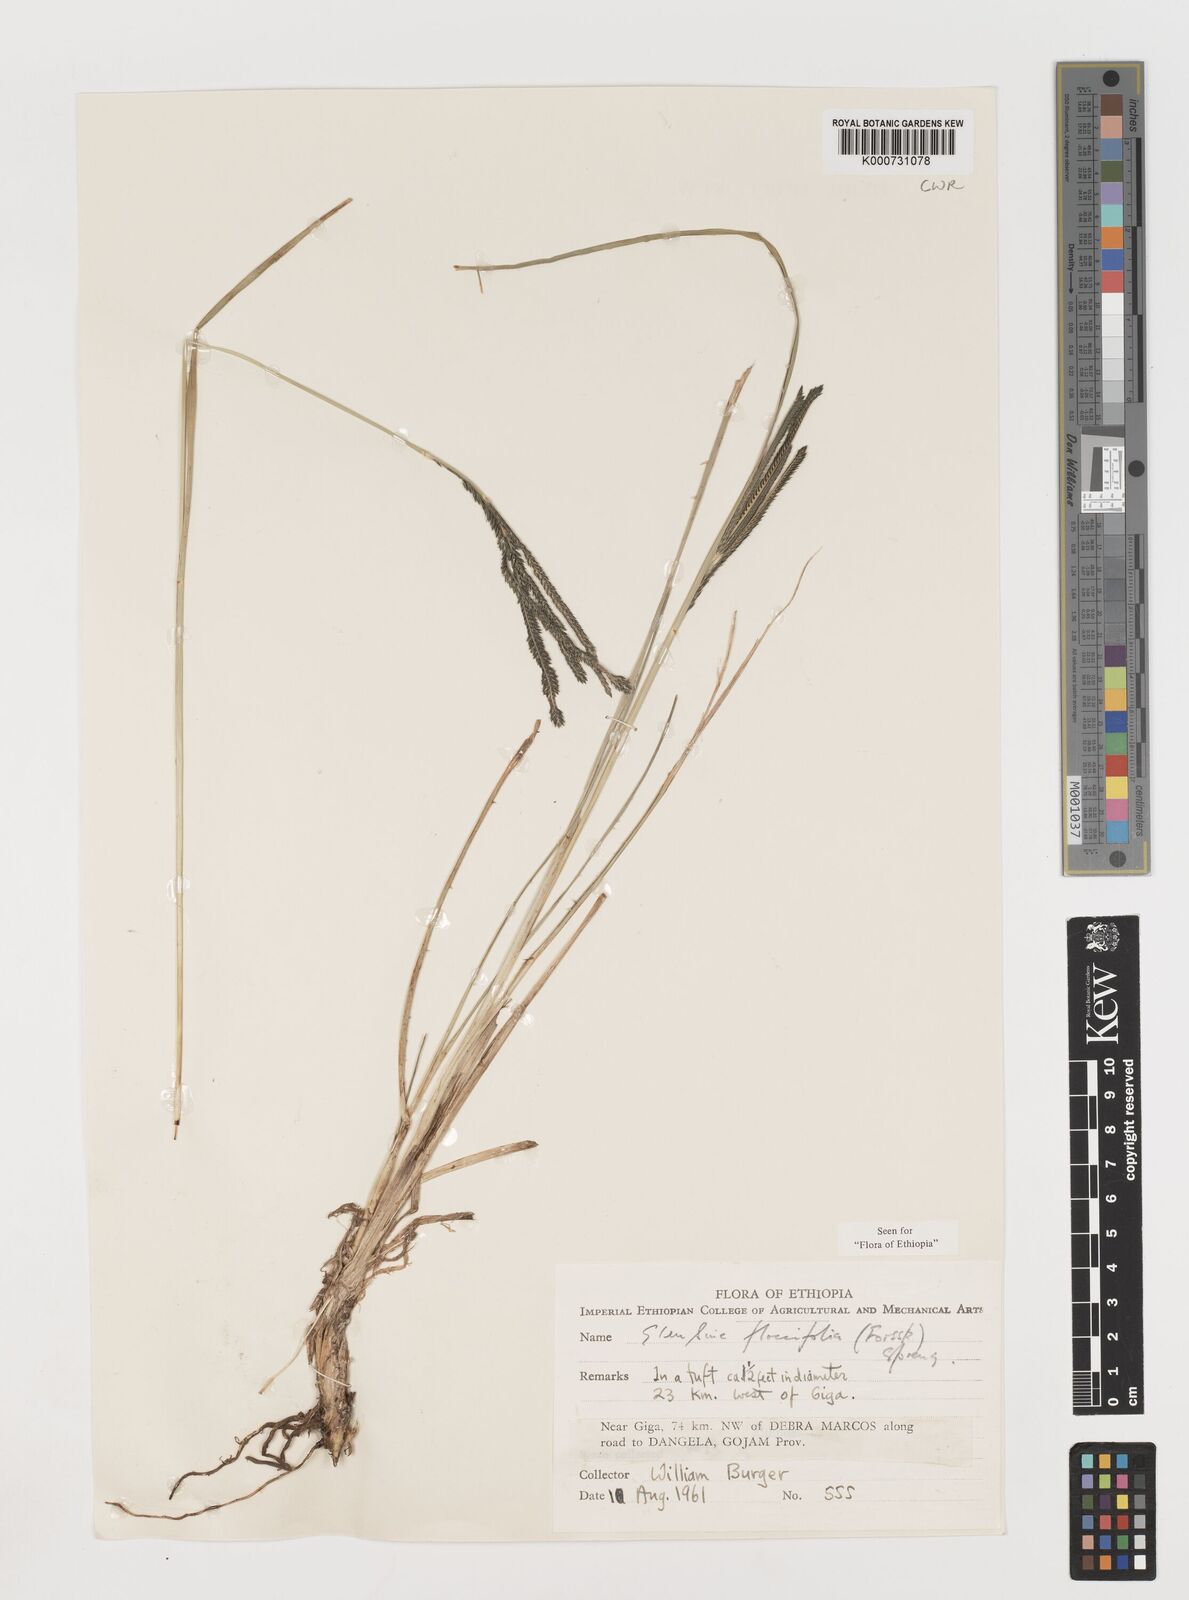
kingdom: Plantae
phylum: Tracheophyta
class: Liliopsida
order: Poales
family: Poaceae
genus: Eleusine
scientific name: Eleusine floccifolia
